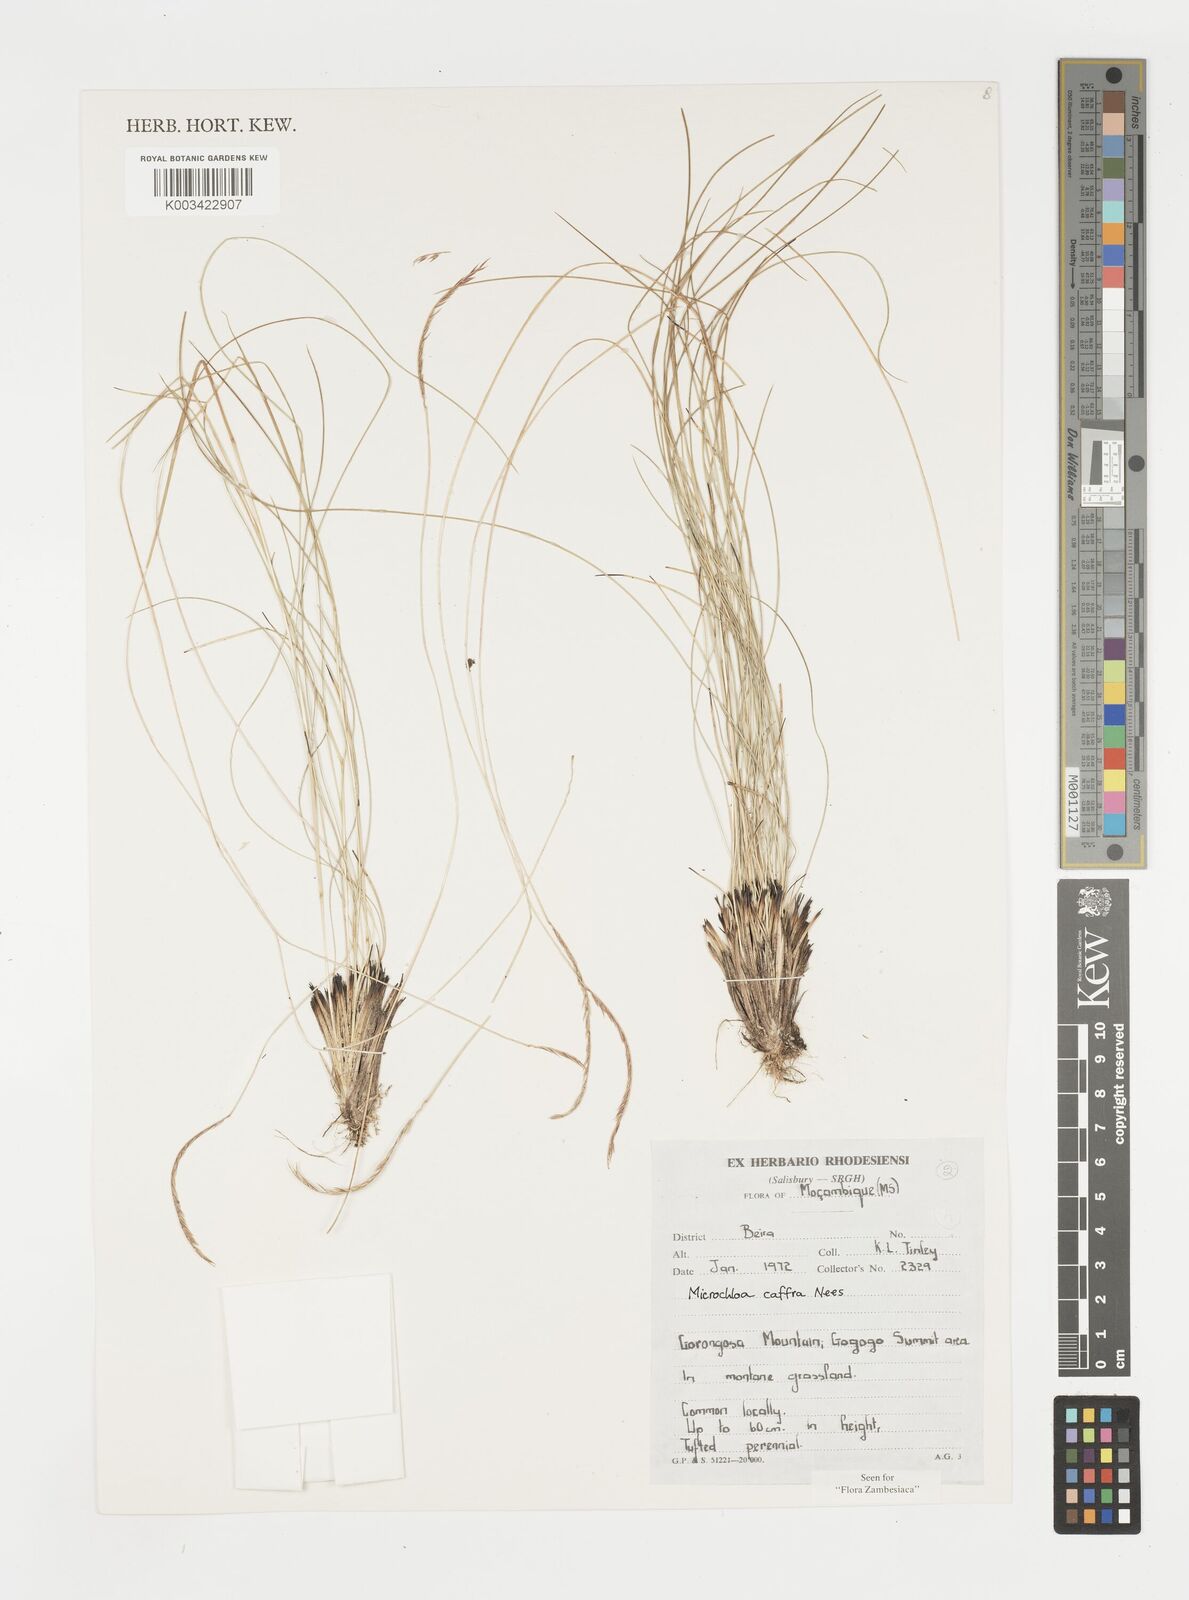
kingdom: Plantae
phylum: Tracheophyta
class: Liliopsida
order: Poales
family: Poaceae
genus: Microchloa
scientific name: Microchloa caffra
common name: Pincushion grass
